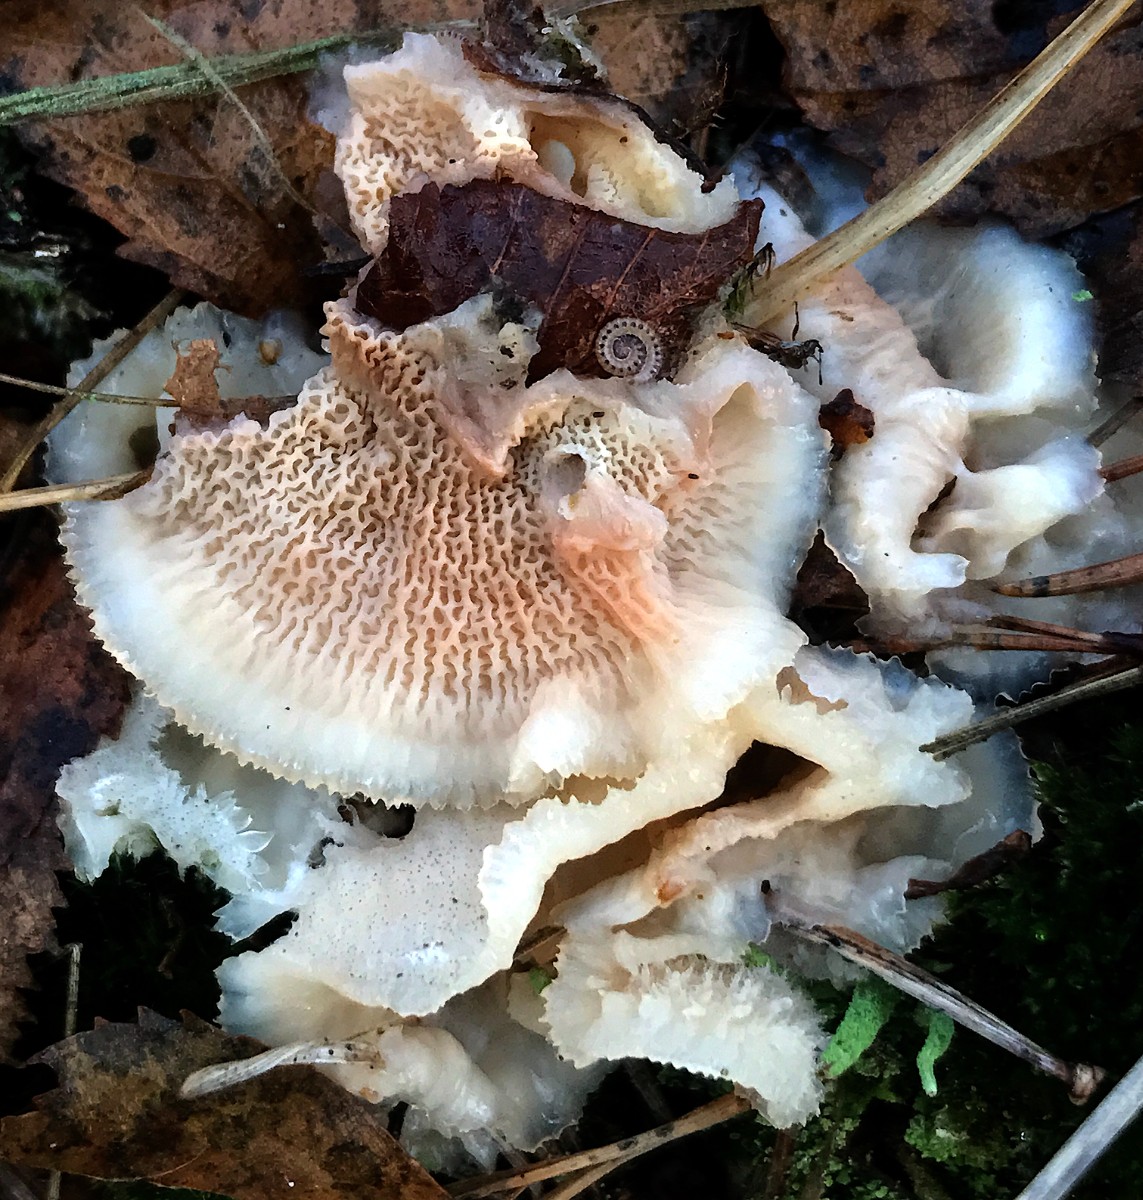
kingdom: Fungi
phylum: Basidiomycota
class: Agaricomycetes
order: Polyporales
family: Meruliaceae
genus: Phlebia
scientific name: Phlebia tremellosa
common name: bævrende åresvamp
